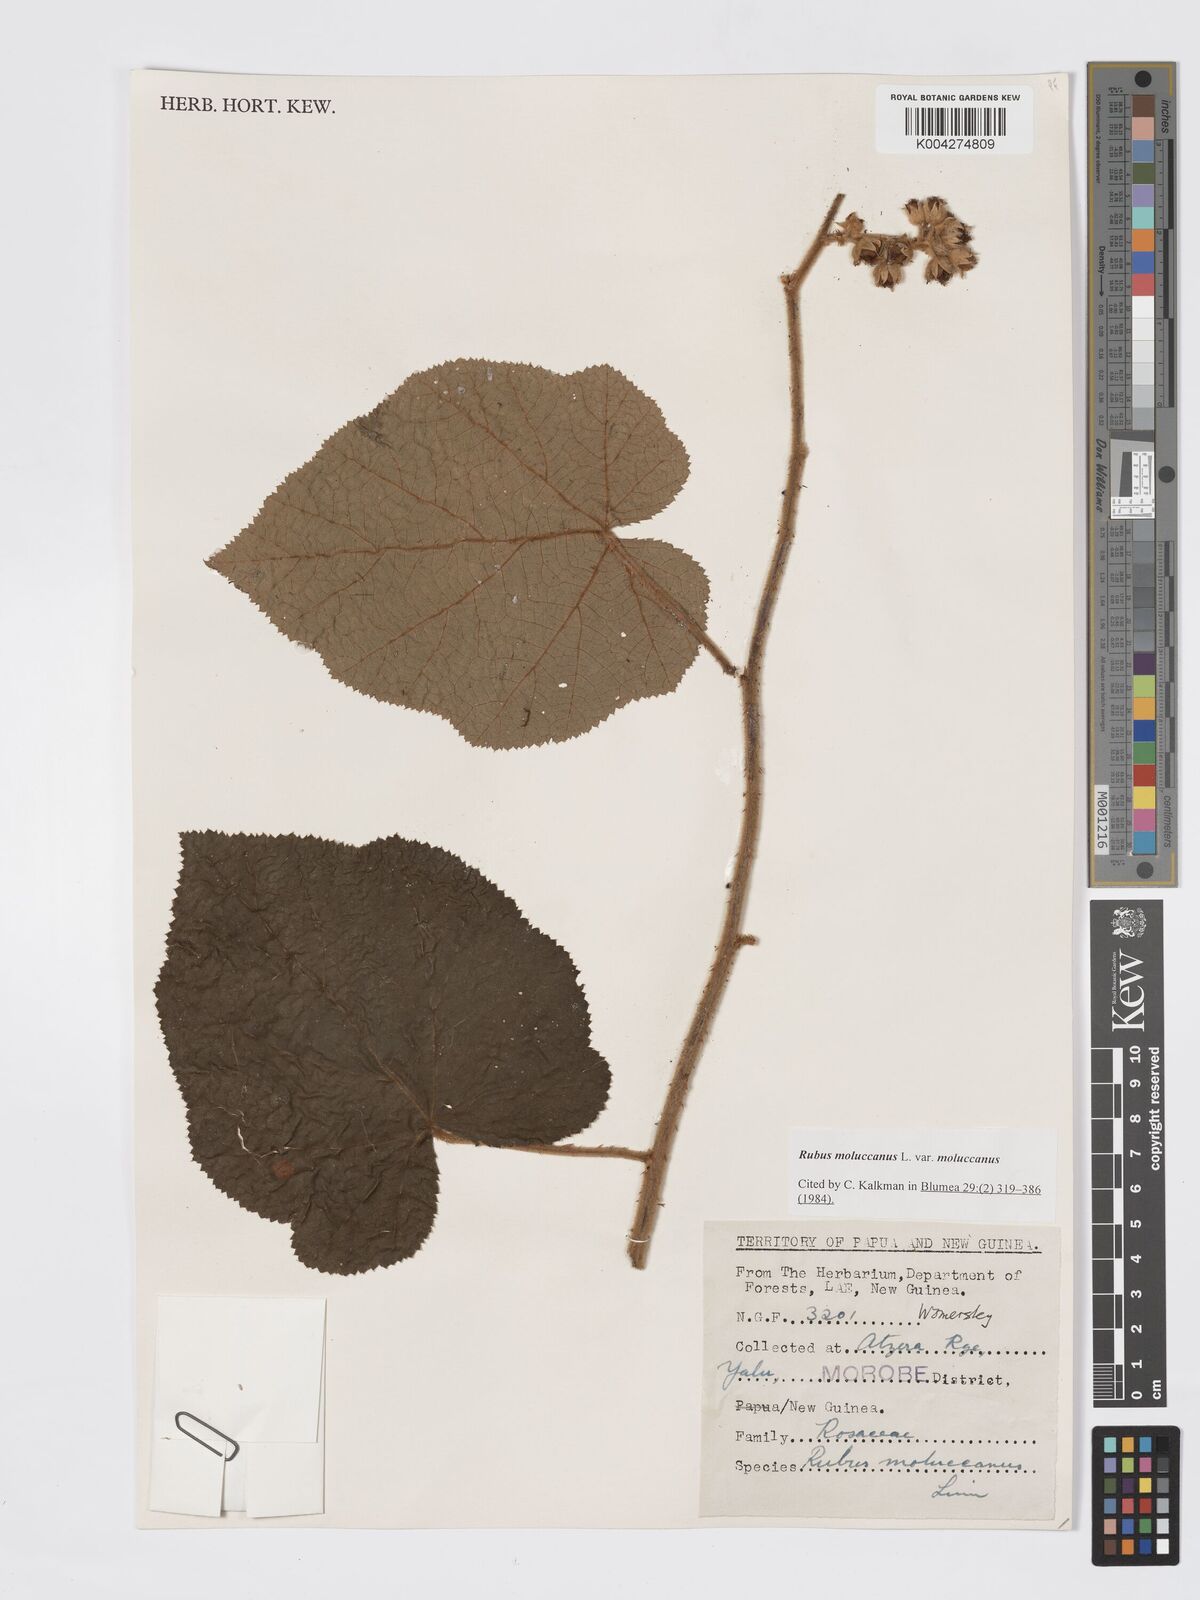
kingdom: Plantae
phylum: Tracheophyta
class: Magnoliopsida
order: Rosales
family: Rosaceae
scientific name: Rosaceae
